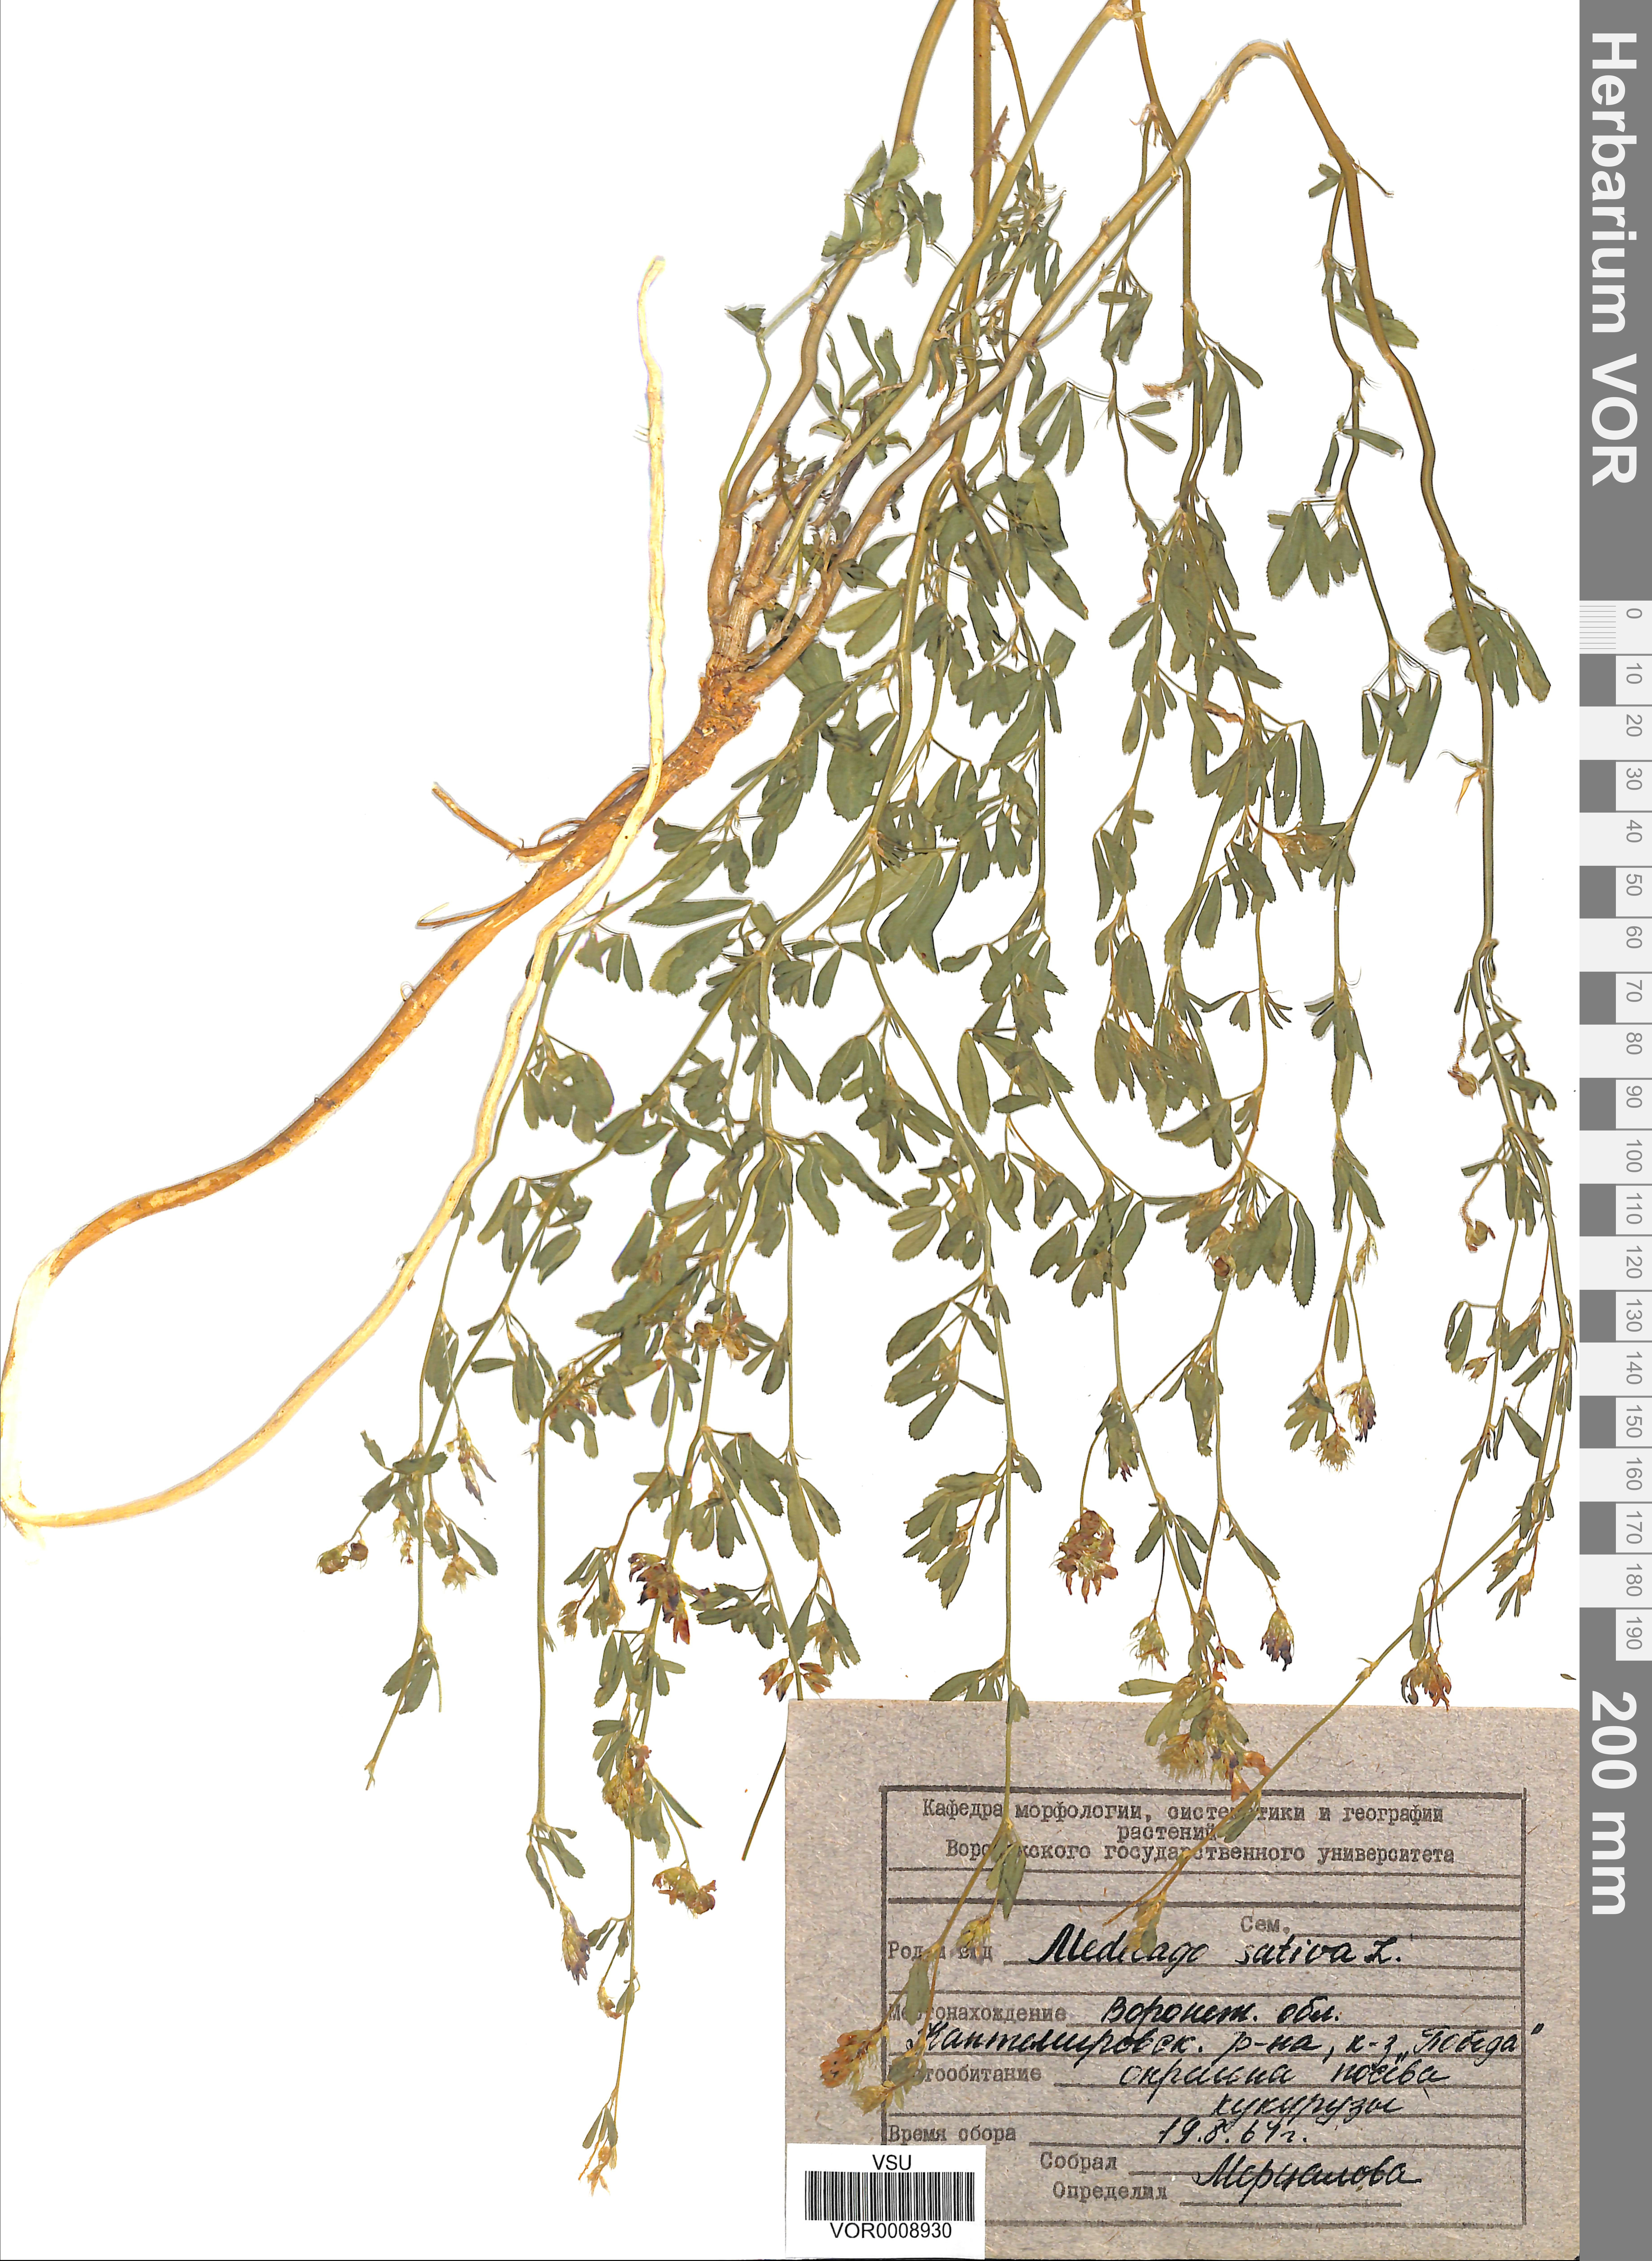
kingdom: Plantae
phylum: Tracheophyta
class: Magnoliopsida
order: Fabales
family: Fabaceae
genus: Medicago
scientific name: Medicago sativa
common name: Alfalfa
